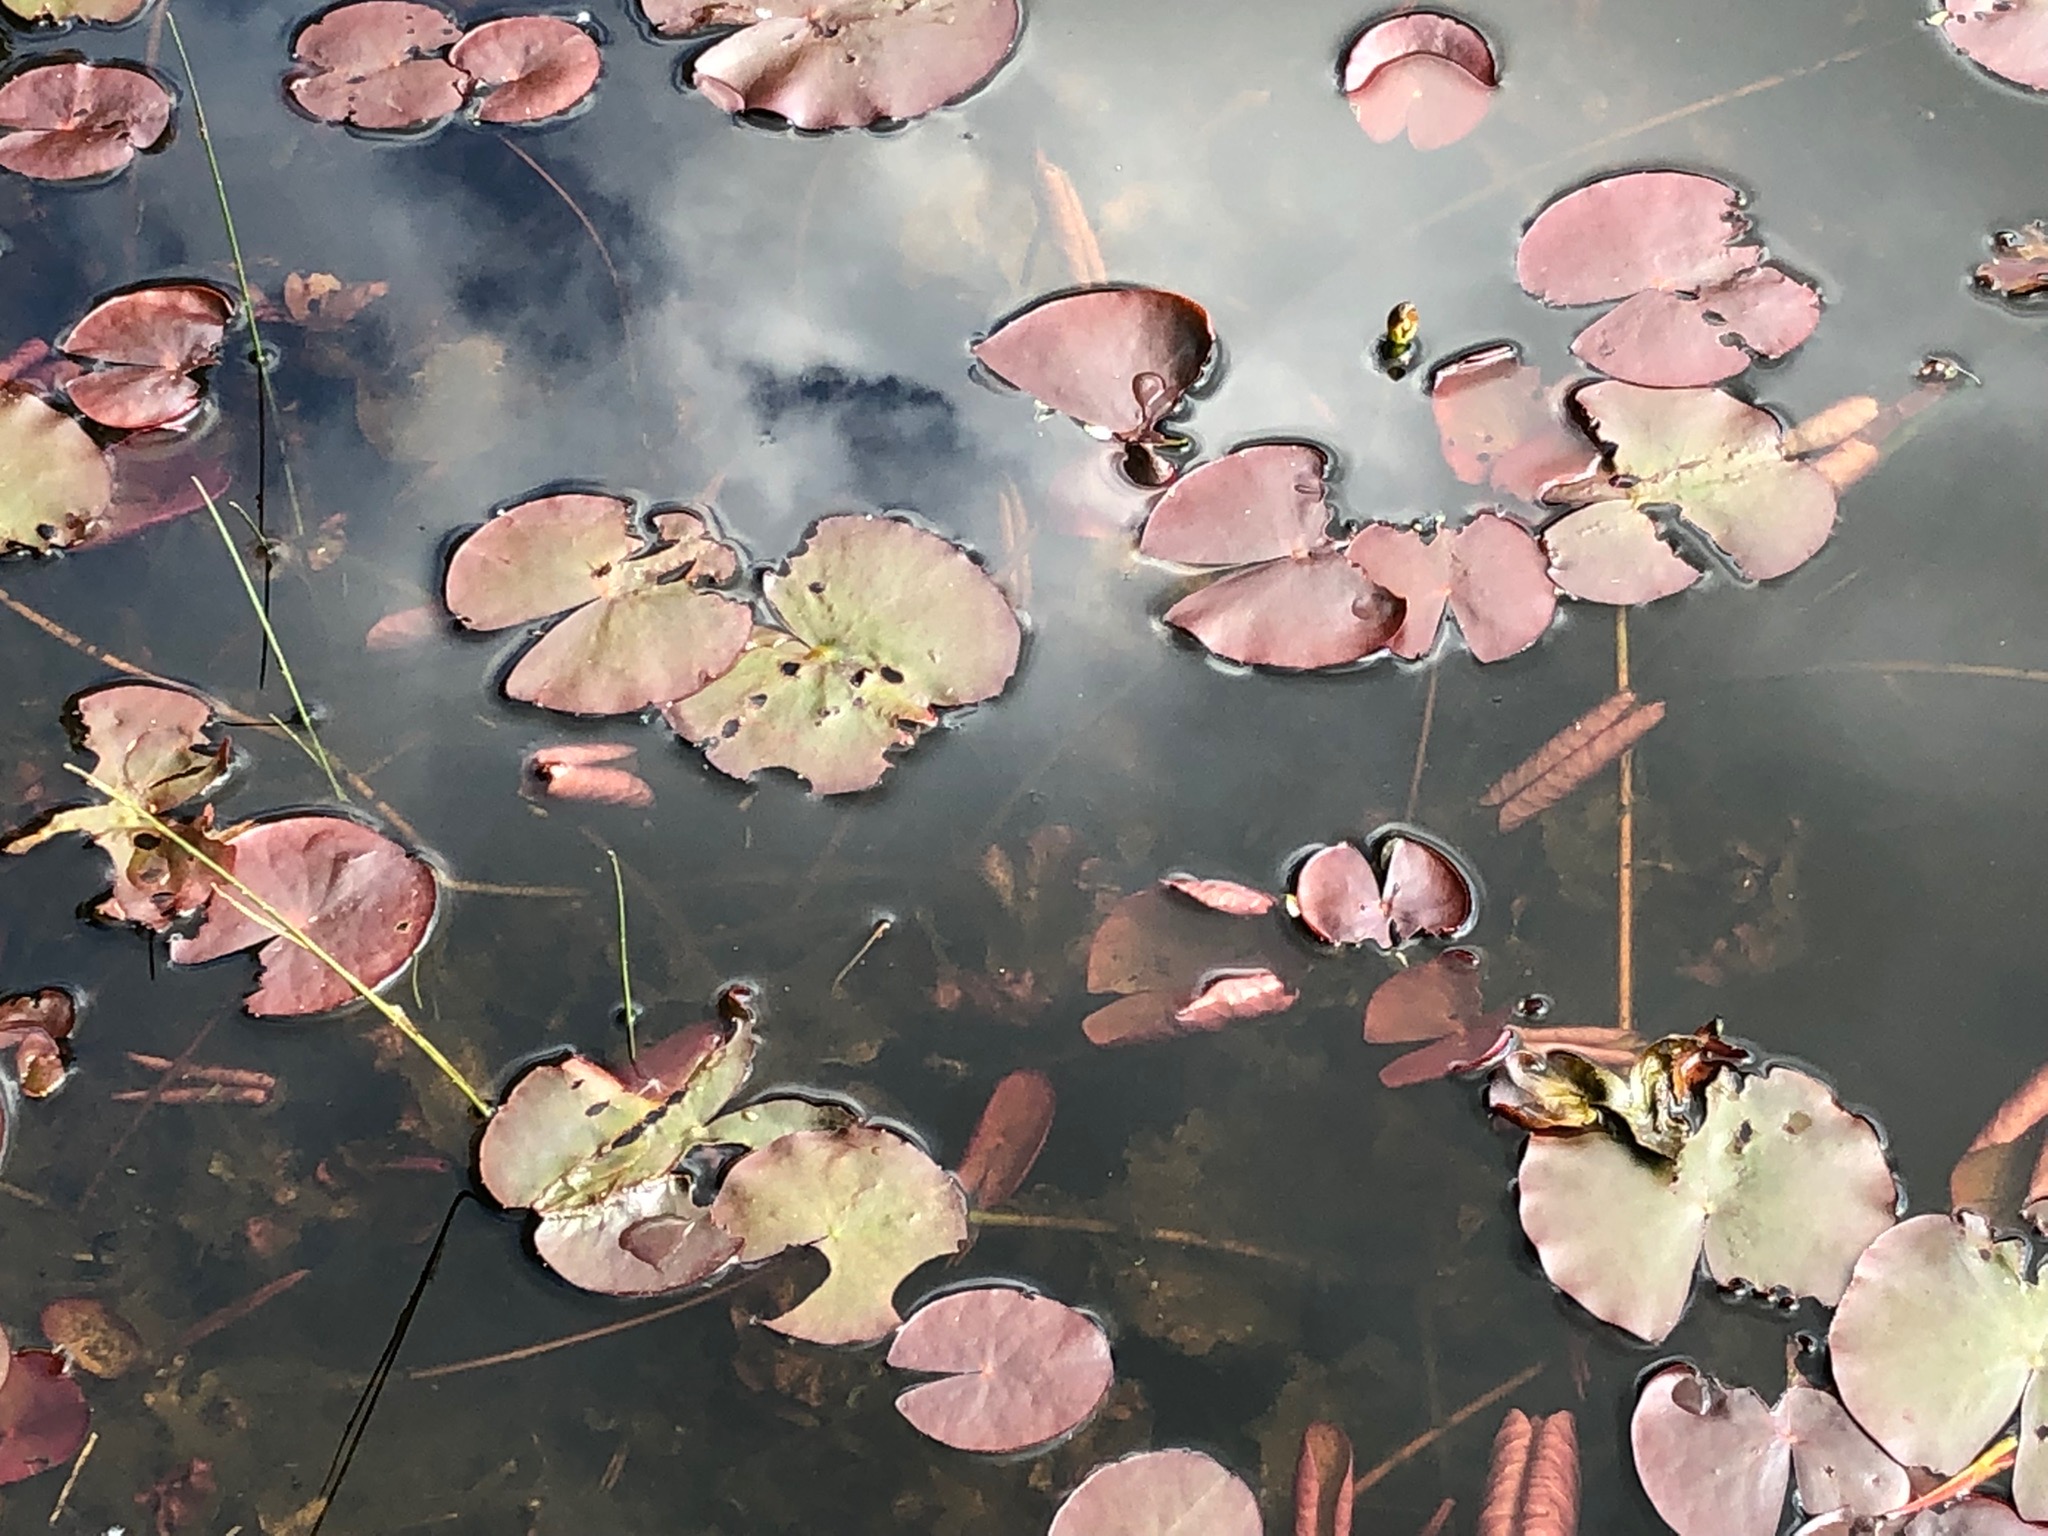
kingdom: Plantae
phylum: Tracheophyta
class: Magnoliopsida
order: Nymphaeales
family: Nymphaeaceae
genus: Nymphaea
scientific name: Nymphaea
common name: Nøkkeroseslægten
